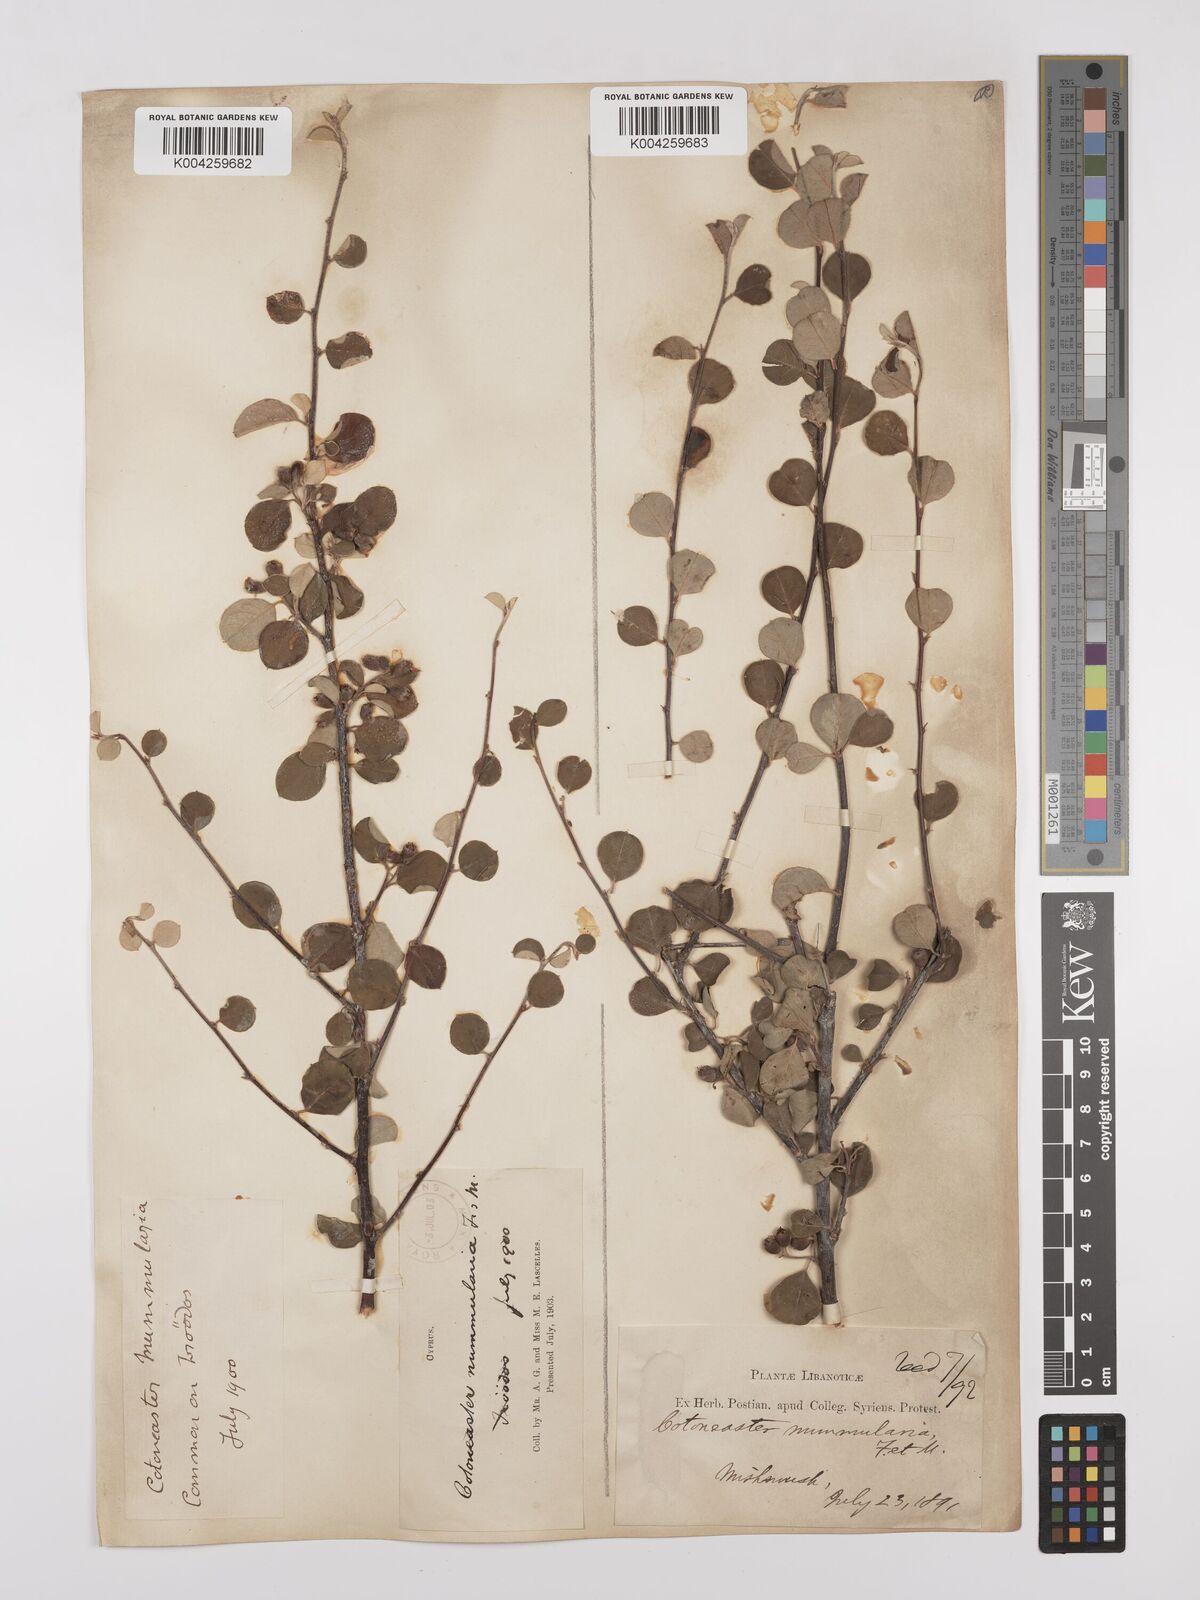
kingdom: Plantae
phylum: Tracheophyta
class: Magnoliopsida
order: Rosales
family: Rosaceae
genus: Cotoneaster
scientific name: Cotoneaster nummularius
